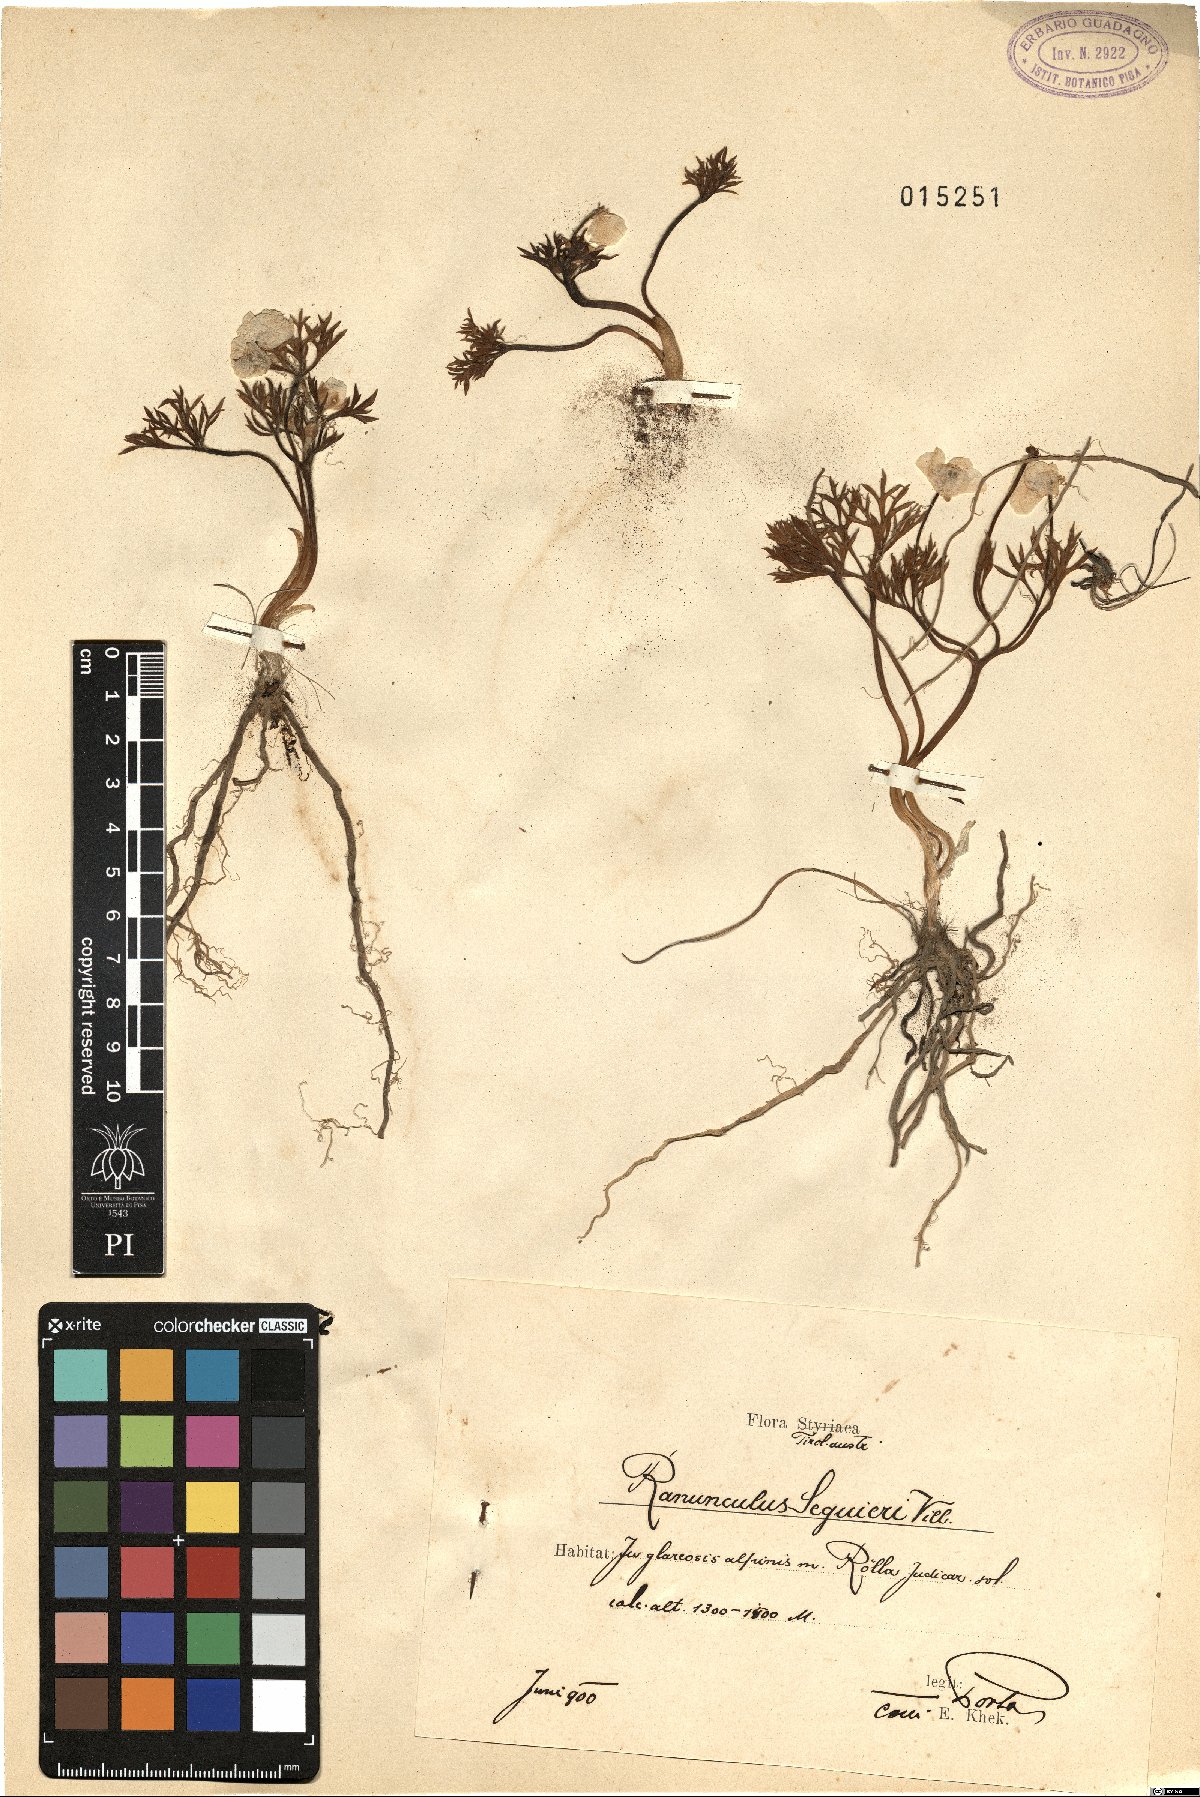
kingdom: Plantae
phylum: Tracheophyta
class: Magnoliopsida
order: Ranunculales
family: Ranunculaceae
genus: Ranunculus
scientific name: Ranunculus seguieri
